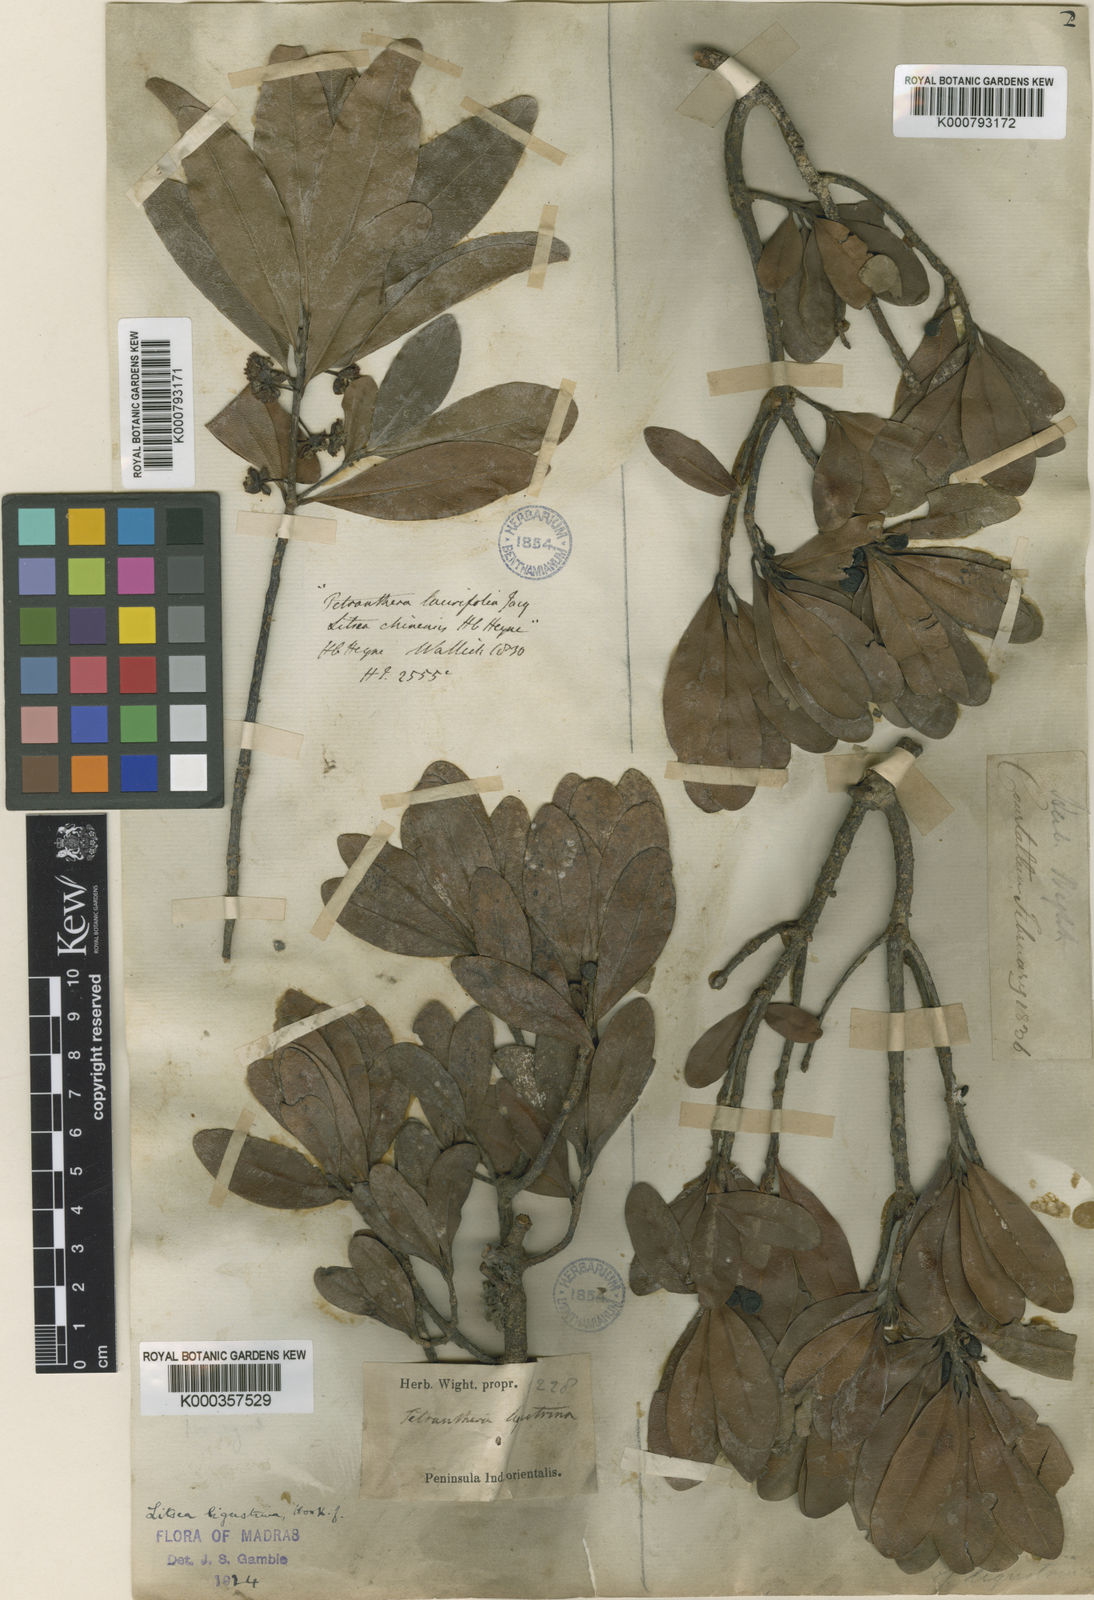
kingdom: Plantae
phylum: Tracheophyta
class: Magnoliopsida
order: Laurales
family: Lauraceae
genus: Litsea
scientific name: Litsea
